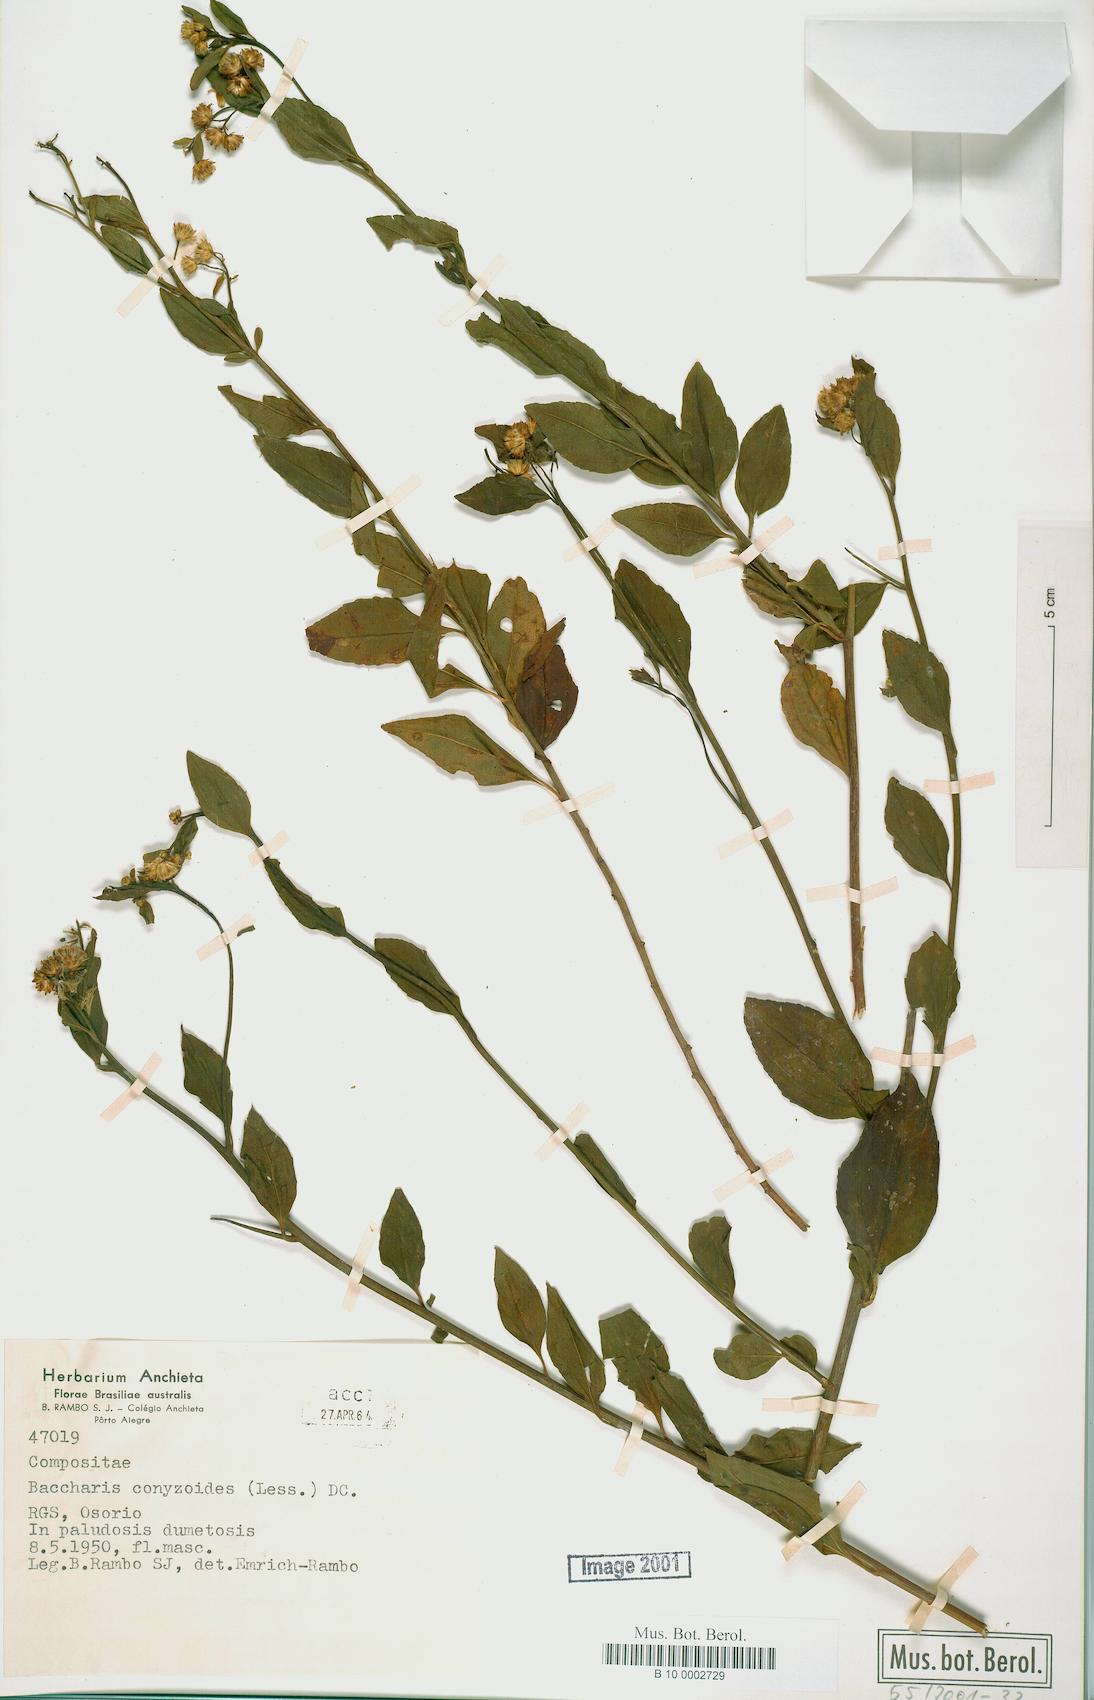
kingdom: Plantae
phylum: Tracheophyta
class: Magnoliopsida
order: Asterales
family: Asteraceae
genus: Baccharis
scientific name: Baccharis conyzoides
